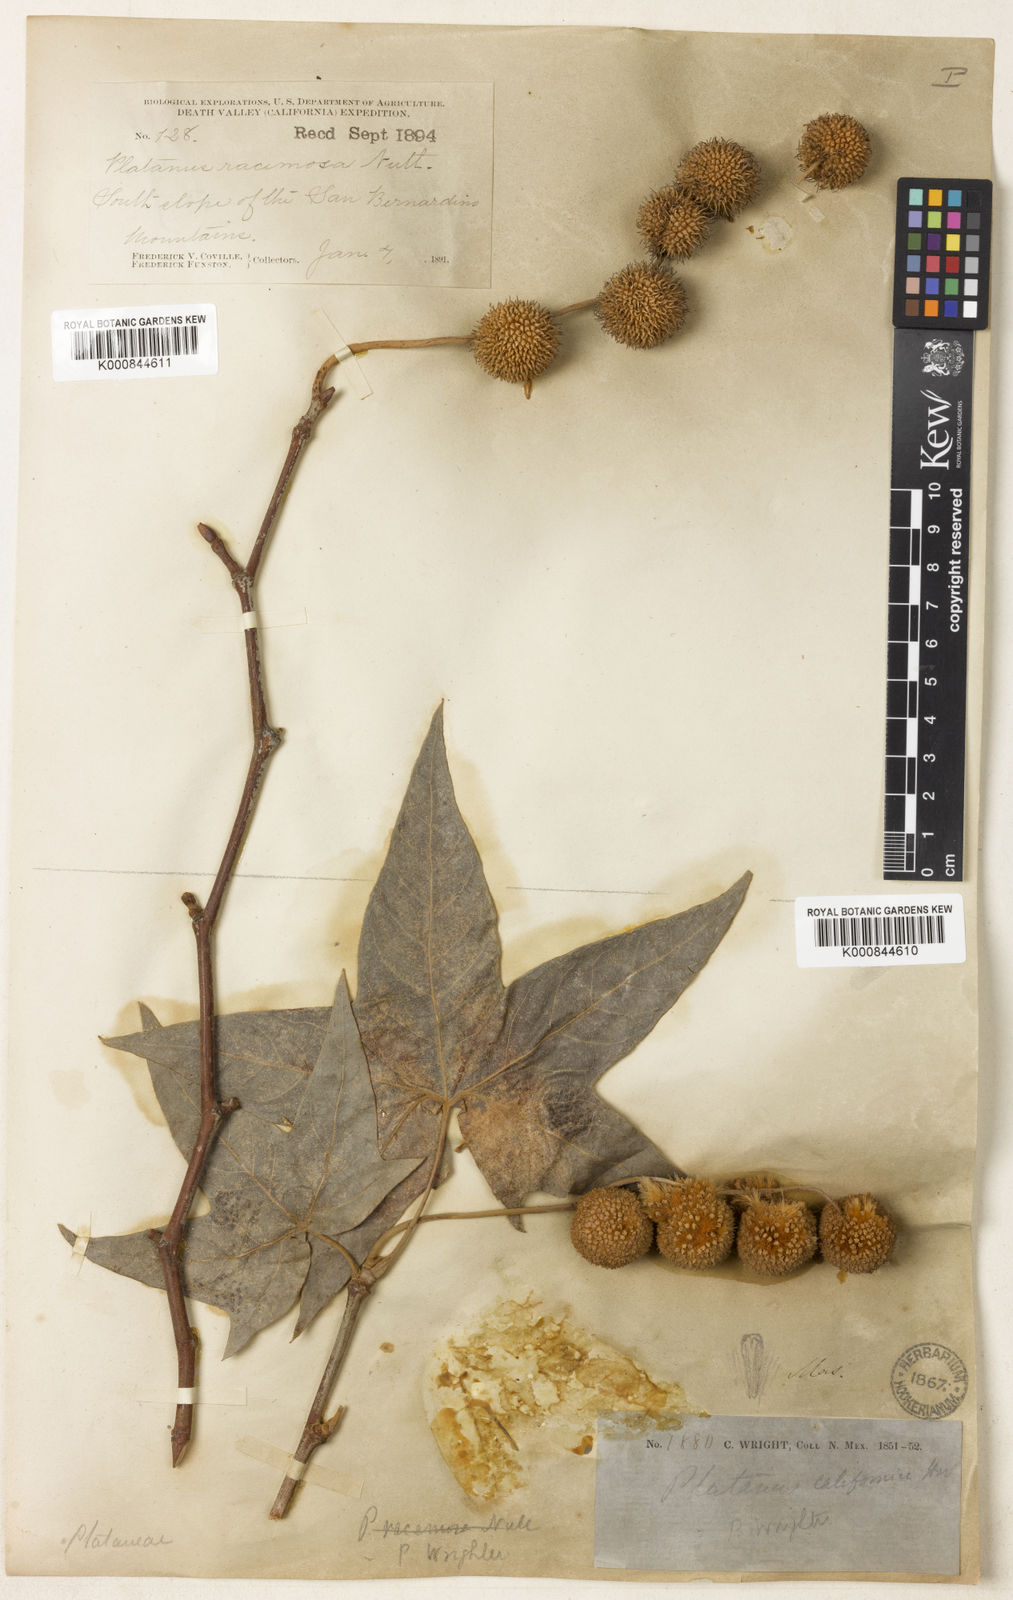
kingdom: Plantae
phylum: Tracheophyta
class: Magnoliopsida
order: Proteales
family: Platanaceae
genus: Platanus
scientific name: Platanus wrightii
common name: Arizona sycamore
